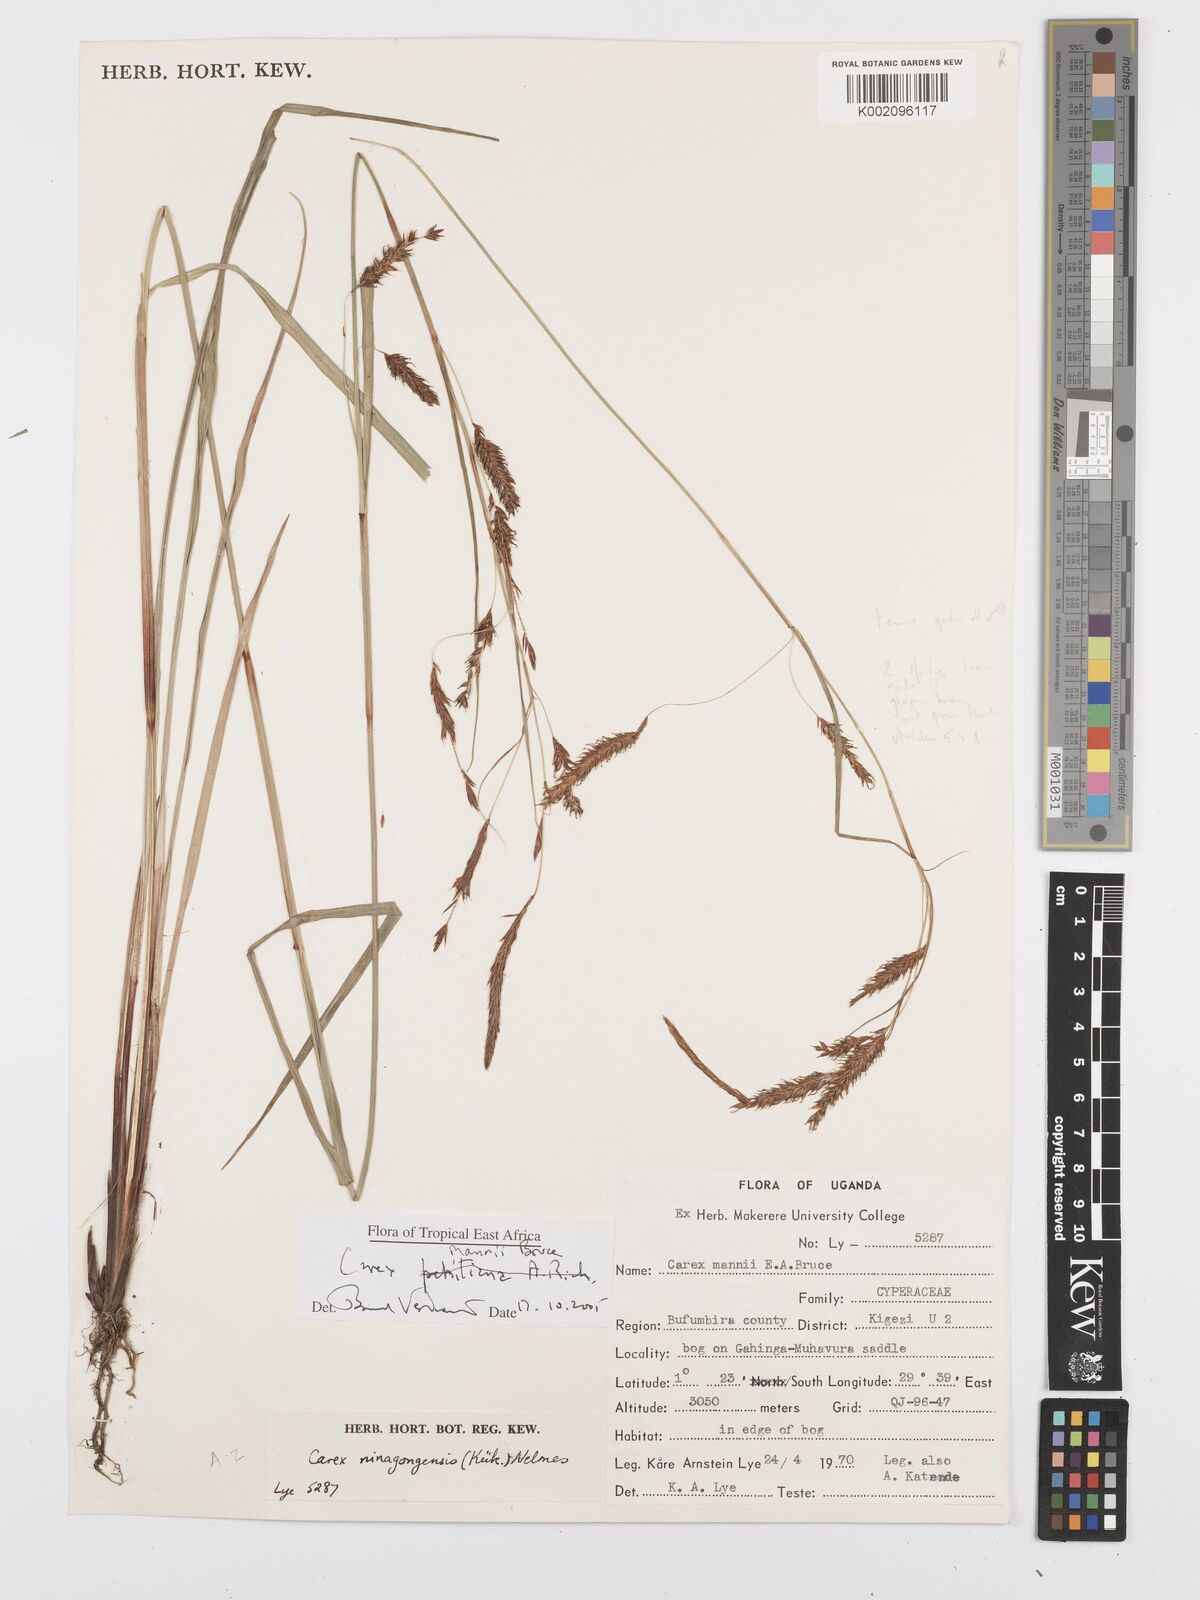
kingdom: Plantae
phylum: Tracheophyta
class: Liliopsida
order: Poales
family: Cyperaceae
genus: Carex
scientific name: Carex mannii
